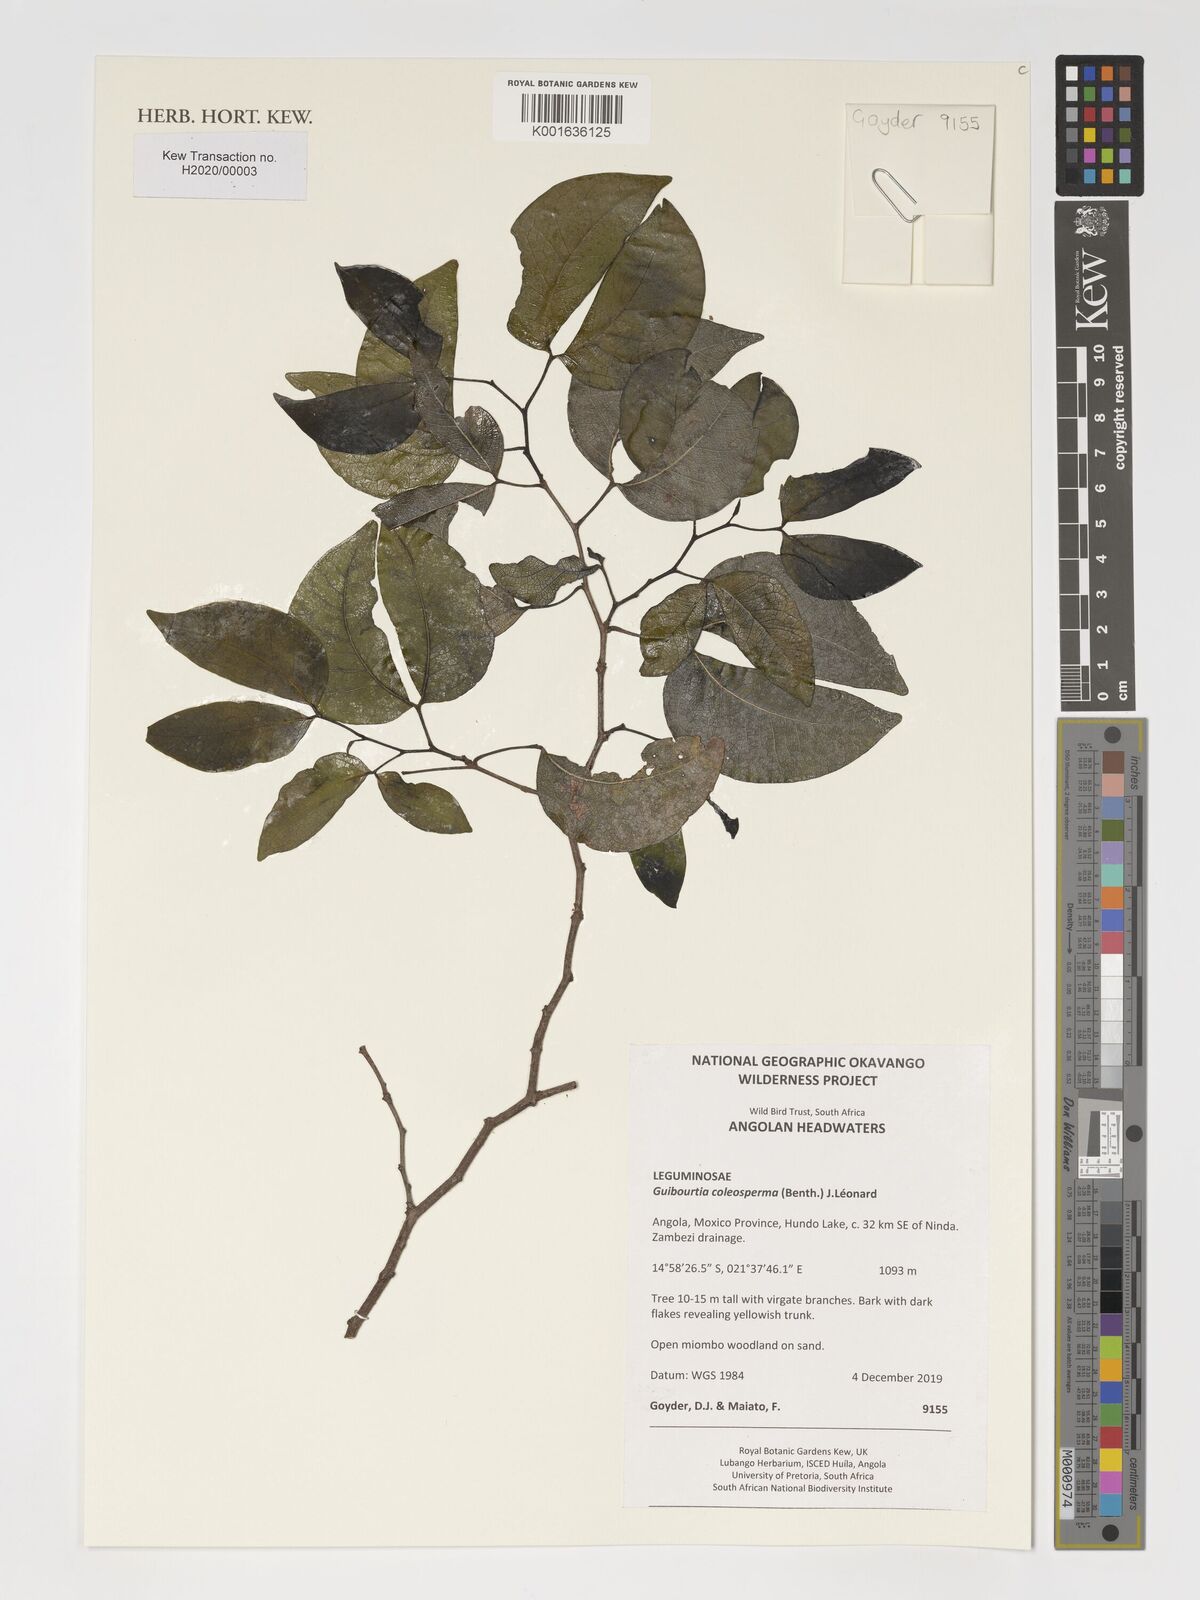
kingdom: Plantae
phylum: Tracheophyta
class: Magnoliopsida
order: Fabales
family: Fabaceae
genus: Guibourtia
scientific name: Guibourtia coleosperma
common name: African rosewoood
